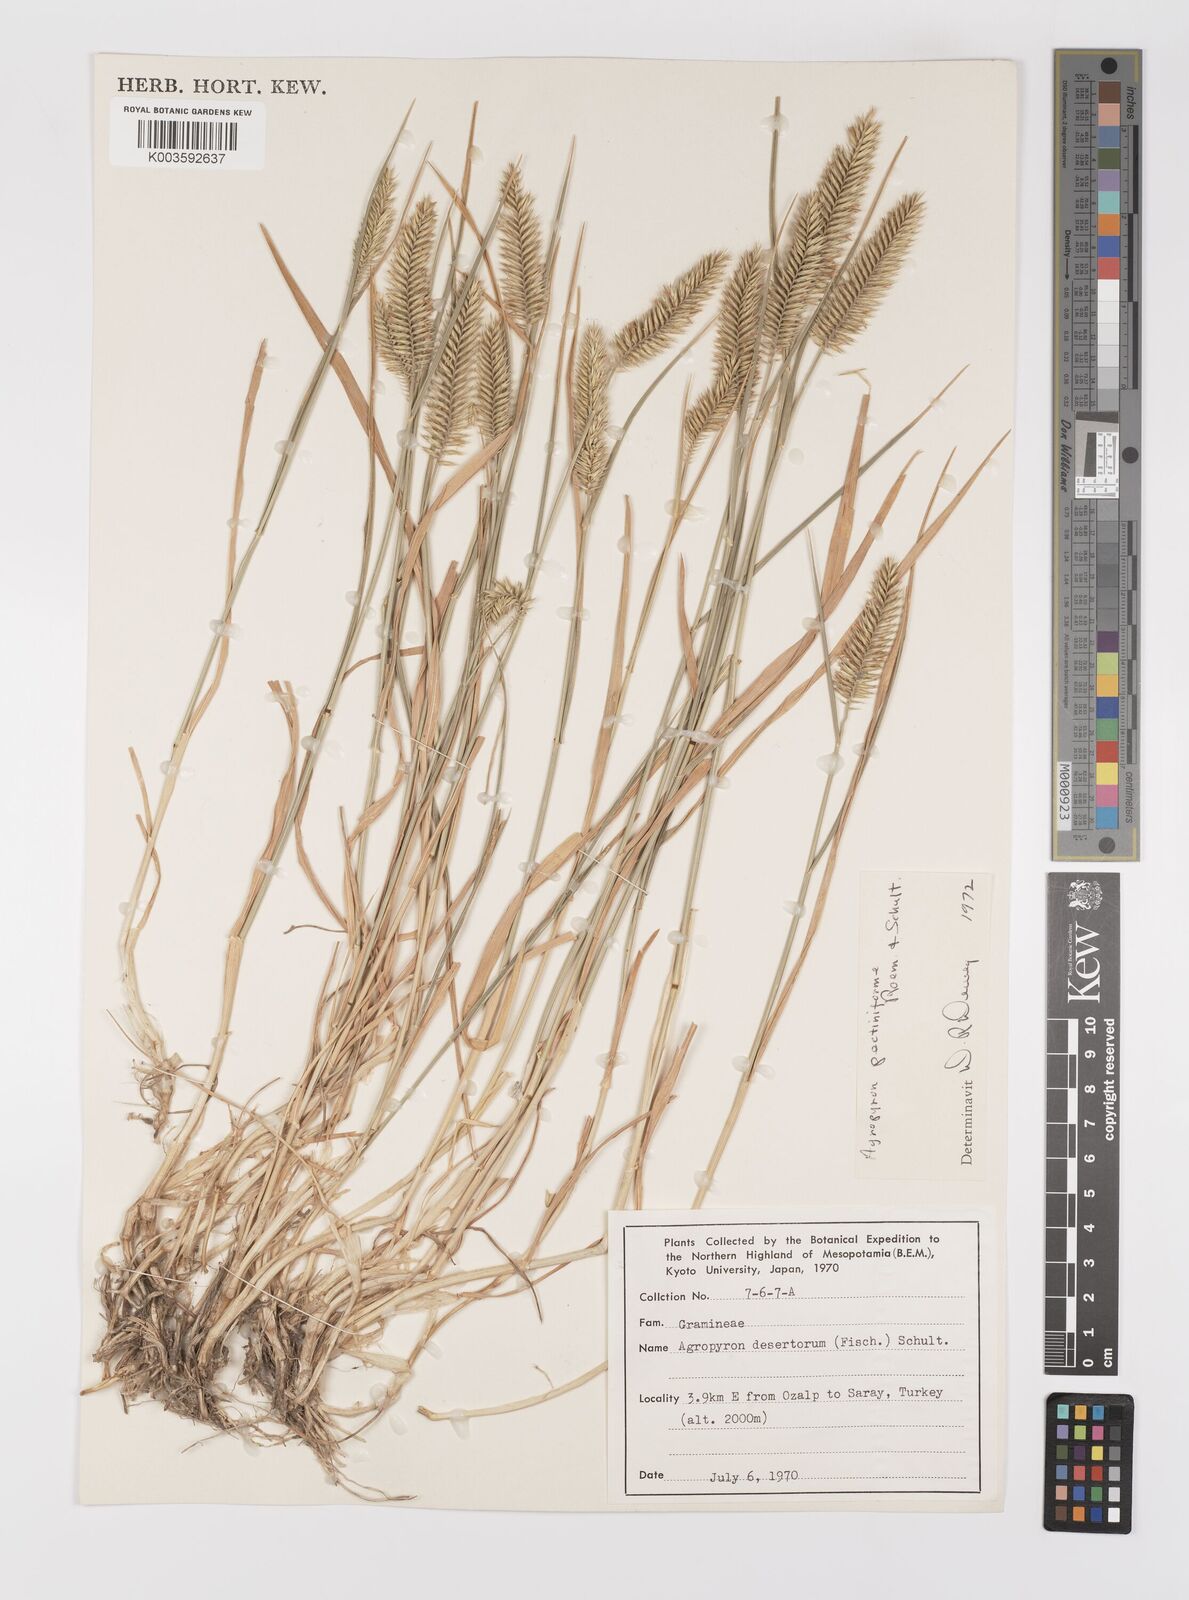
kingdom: Plantae
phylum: Tracheophyta
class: Liliopsida
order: Poales
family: Poaceae
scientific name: Poaceae
